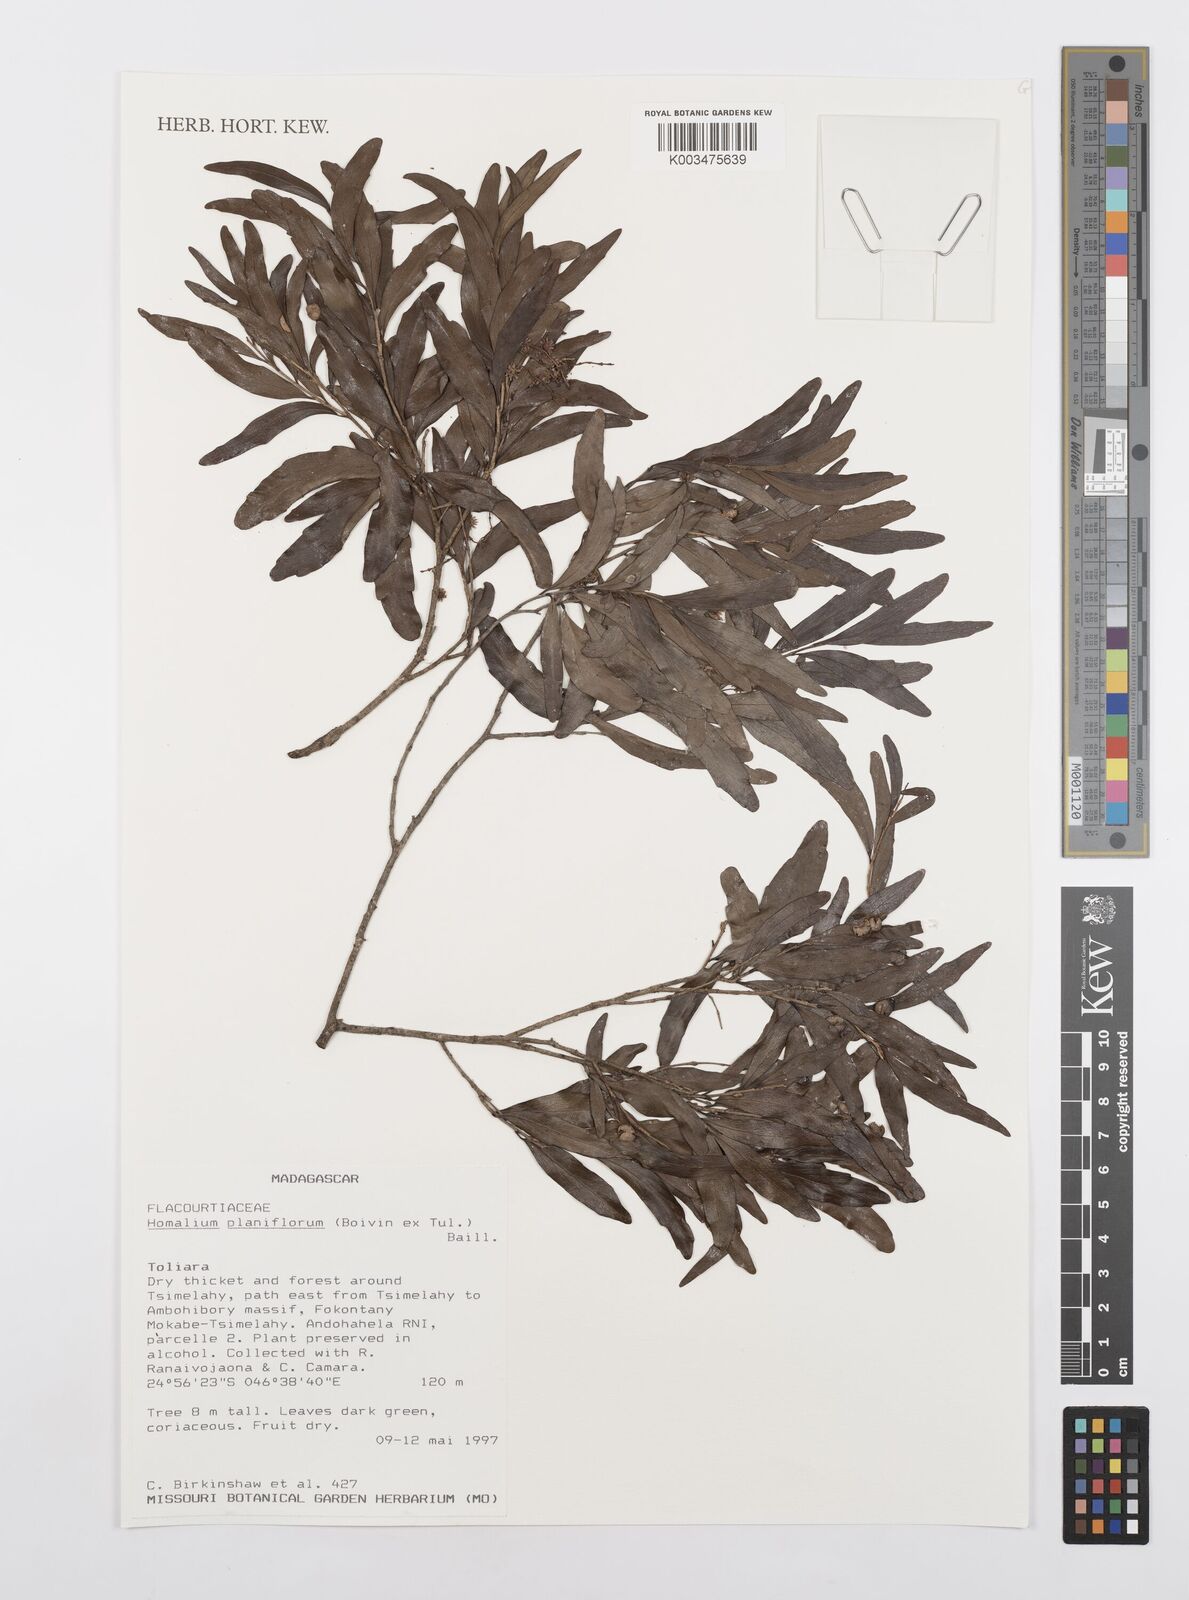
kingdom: Plantae
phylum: Tracheophyta
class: Magnoliopsida
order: Malpighiales
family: Salicaceae
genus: Homalium
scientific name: Homalium planiflorum
